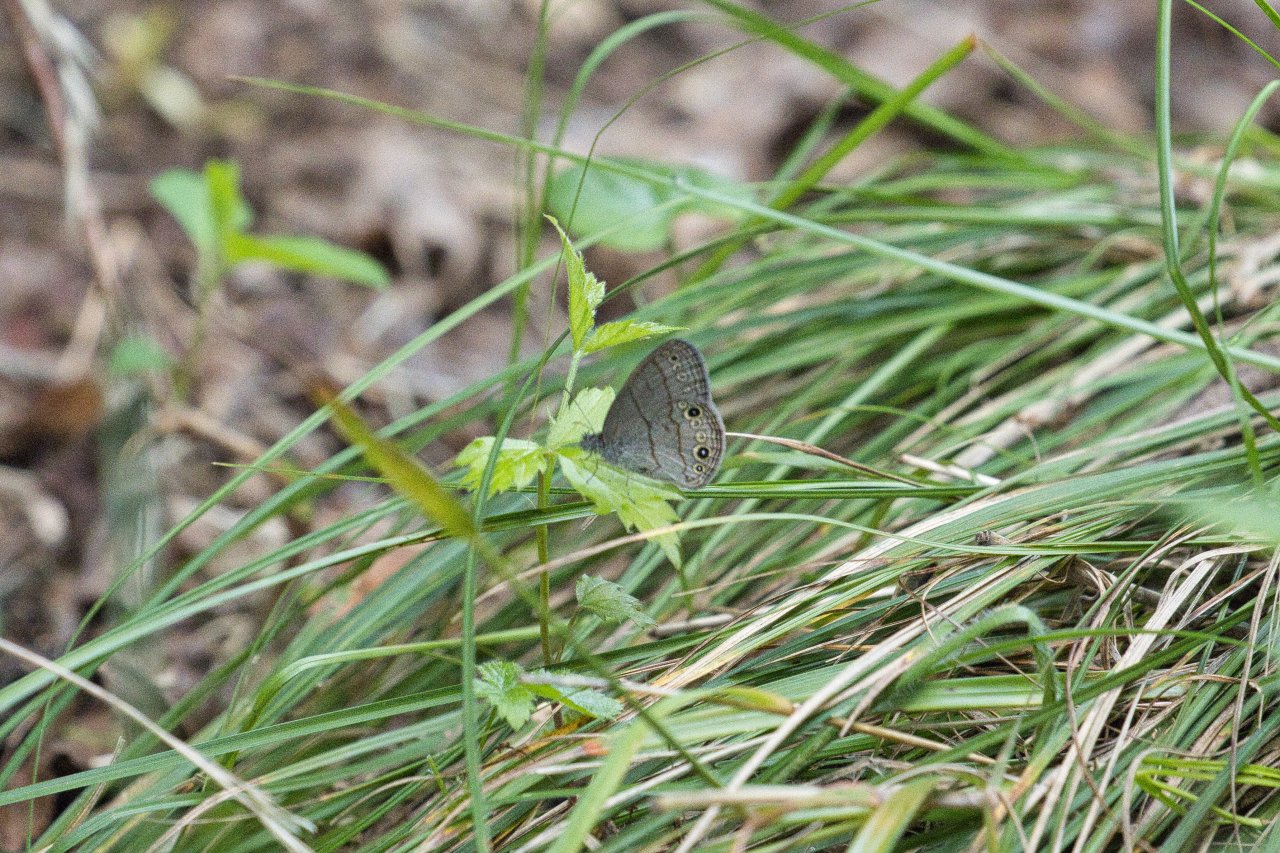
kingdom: Animalia
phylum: Arthropoda
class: Insecta
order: Lepidoptera
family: Nymphalidae
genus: Hermeuptychia
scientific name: Hermeuptychia hermes
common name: Carolina Satyr
